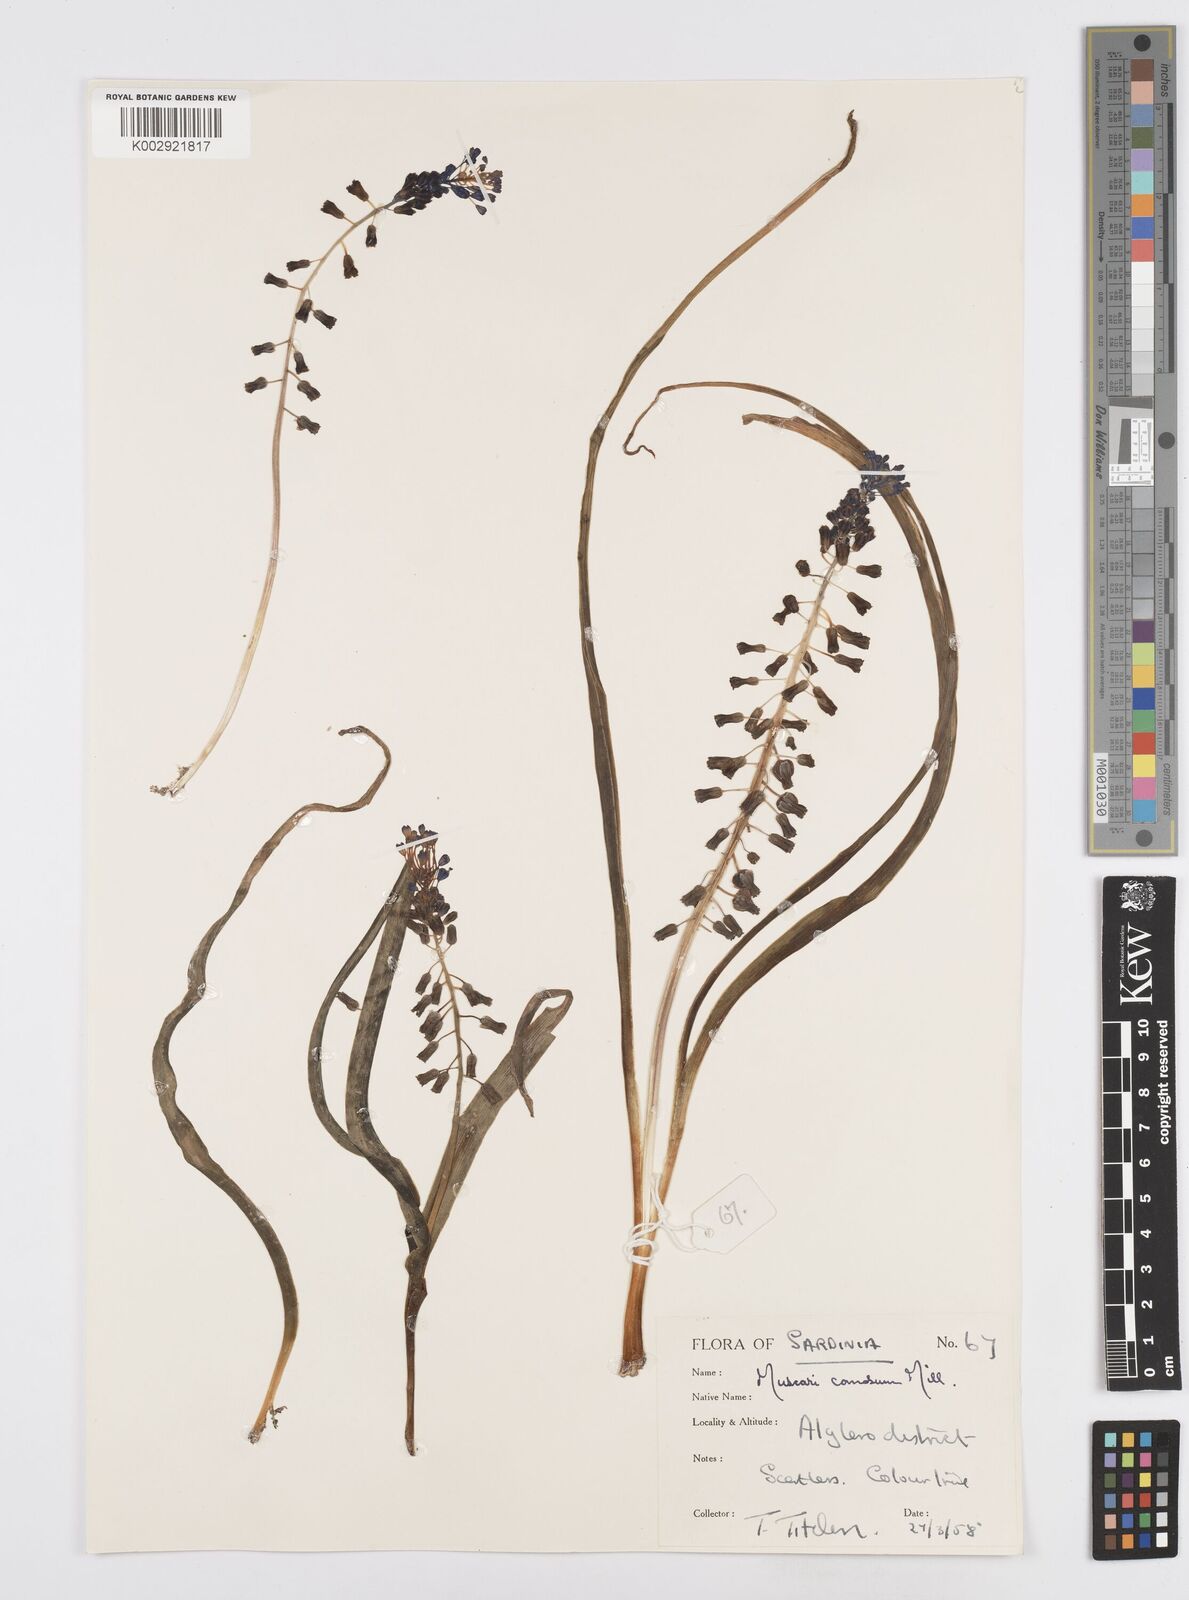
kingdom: Plantae
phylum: Tracheophyta
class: Liliopsida
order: Asparagales
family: Asparagaceae
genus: Muscari
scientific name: Muscari comosum
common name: Tassel hyacinth
